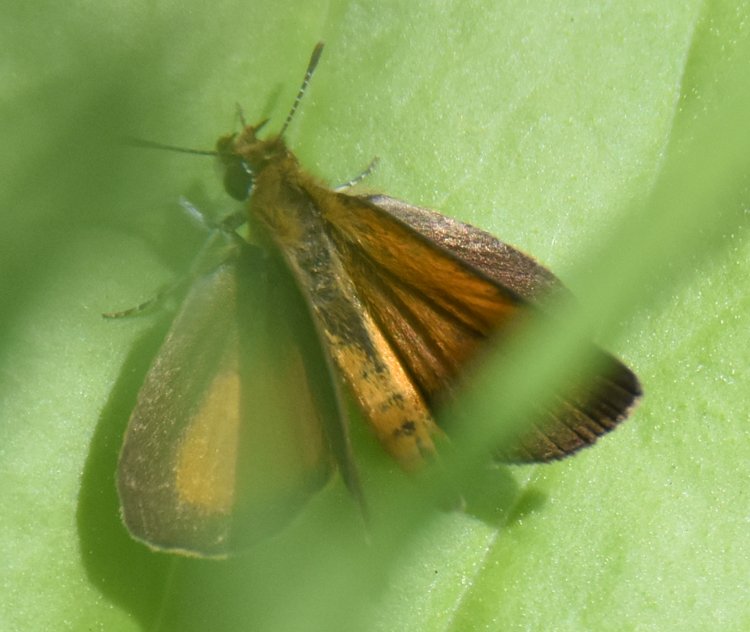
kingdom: Animalia
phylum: Arthropoda
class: Insecta
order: Lepidoptera
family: Hesperiidae
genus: Ancyloxypha
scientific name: Ancyloxypha numitor
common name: Least Skipper
